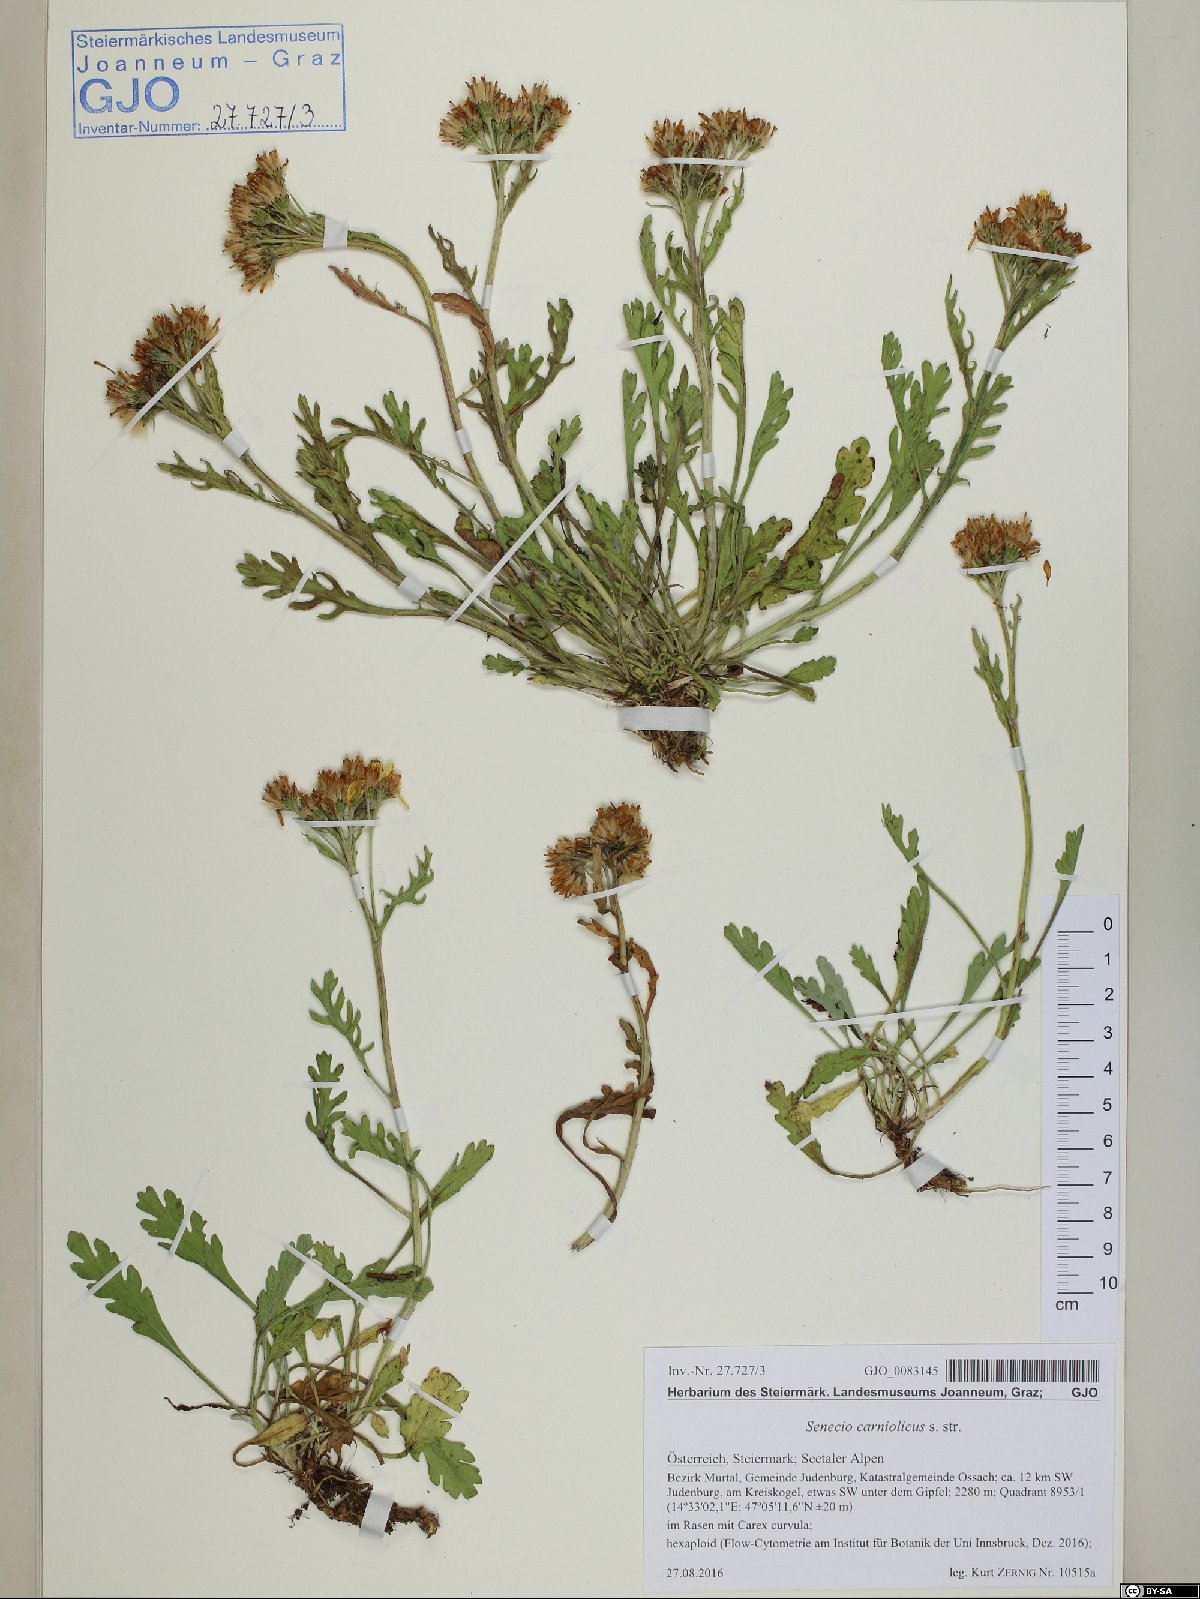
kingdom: Plantae
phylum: Tracheophyta
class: Magnoliopsida
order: Asterales
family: Asteraceae
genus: Jacobaea
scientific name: Jacobaea carniolica
